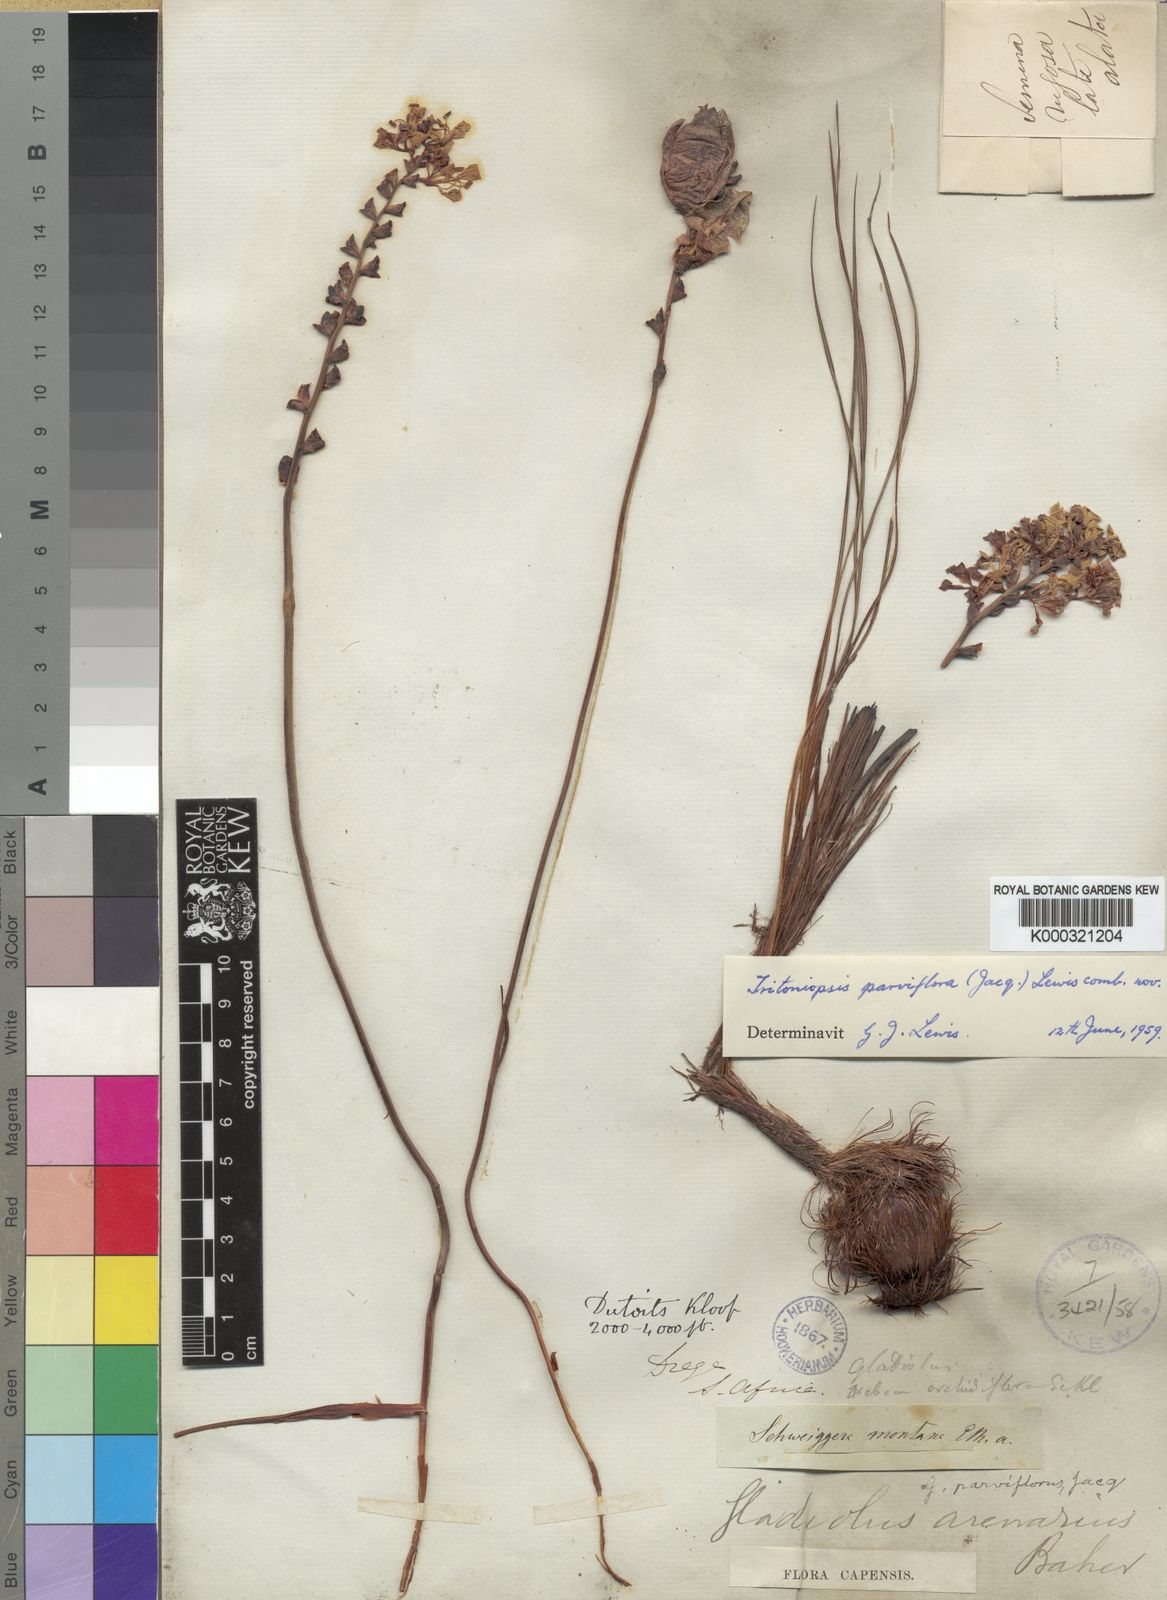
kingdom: Plantae
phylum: Tracheophyta
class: Liliopsida
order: Asparagales
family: Iridaceae
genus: Tritoniopsis
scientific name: Tritoniopsis parviflora
